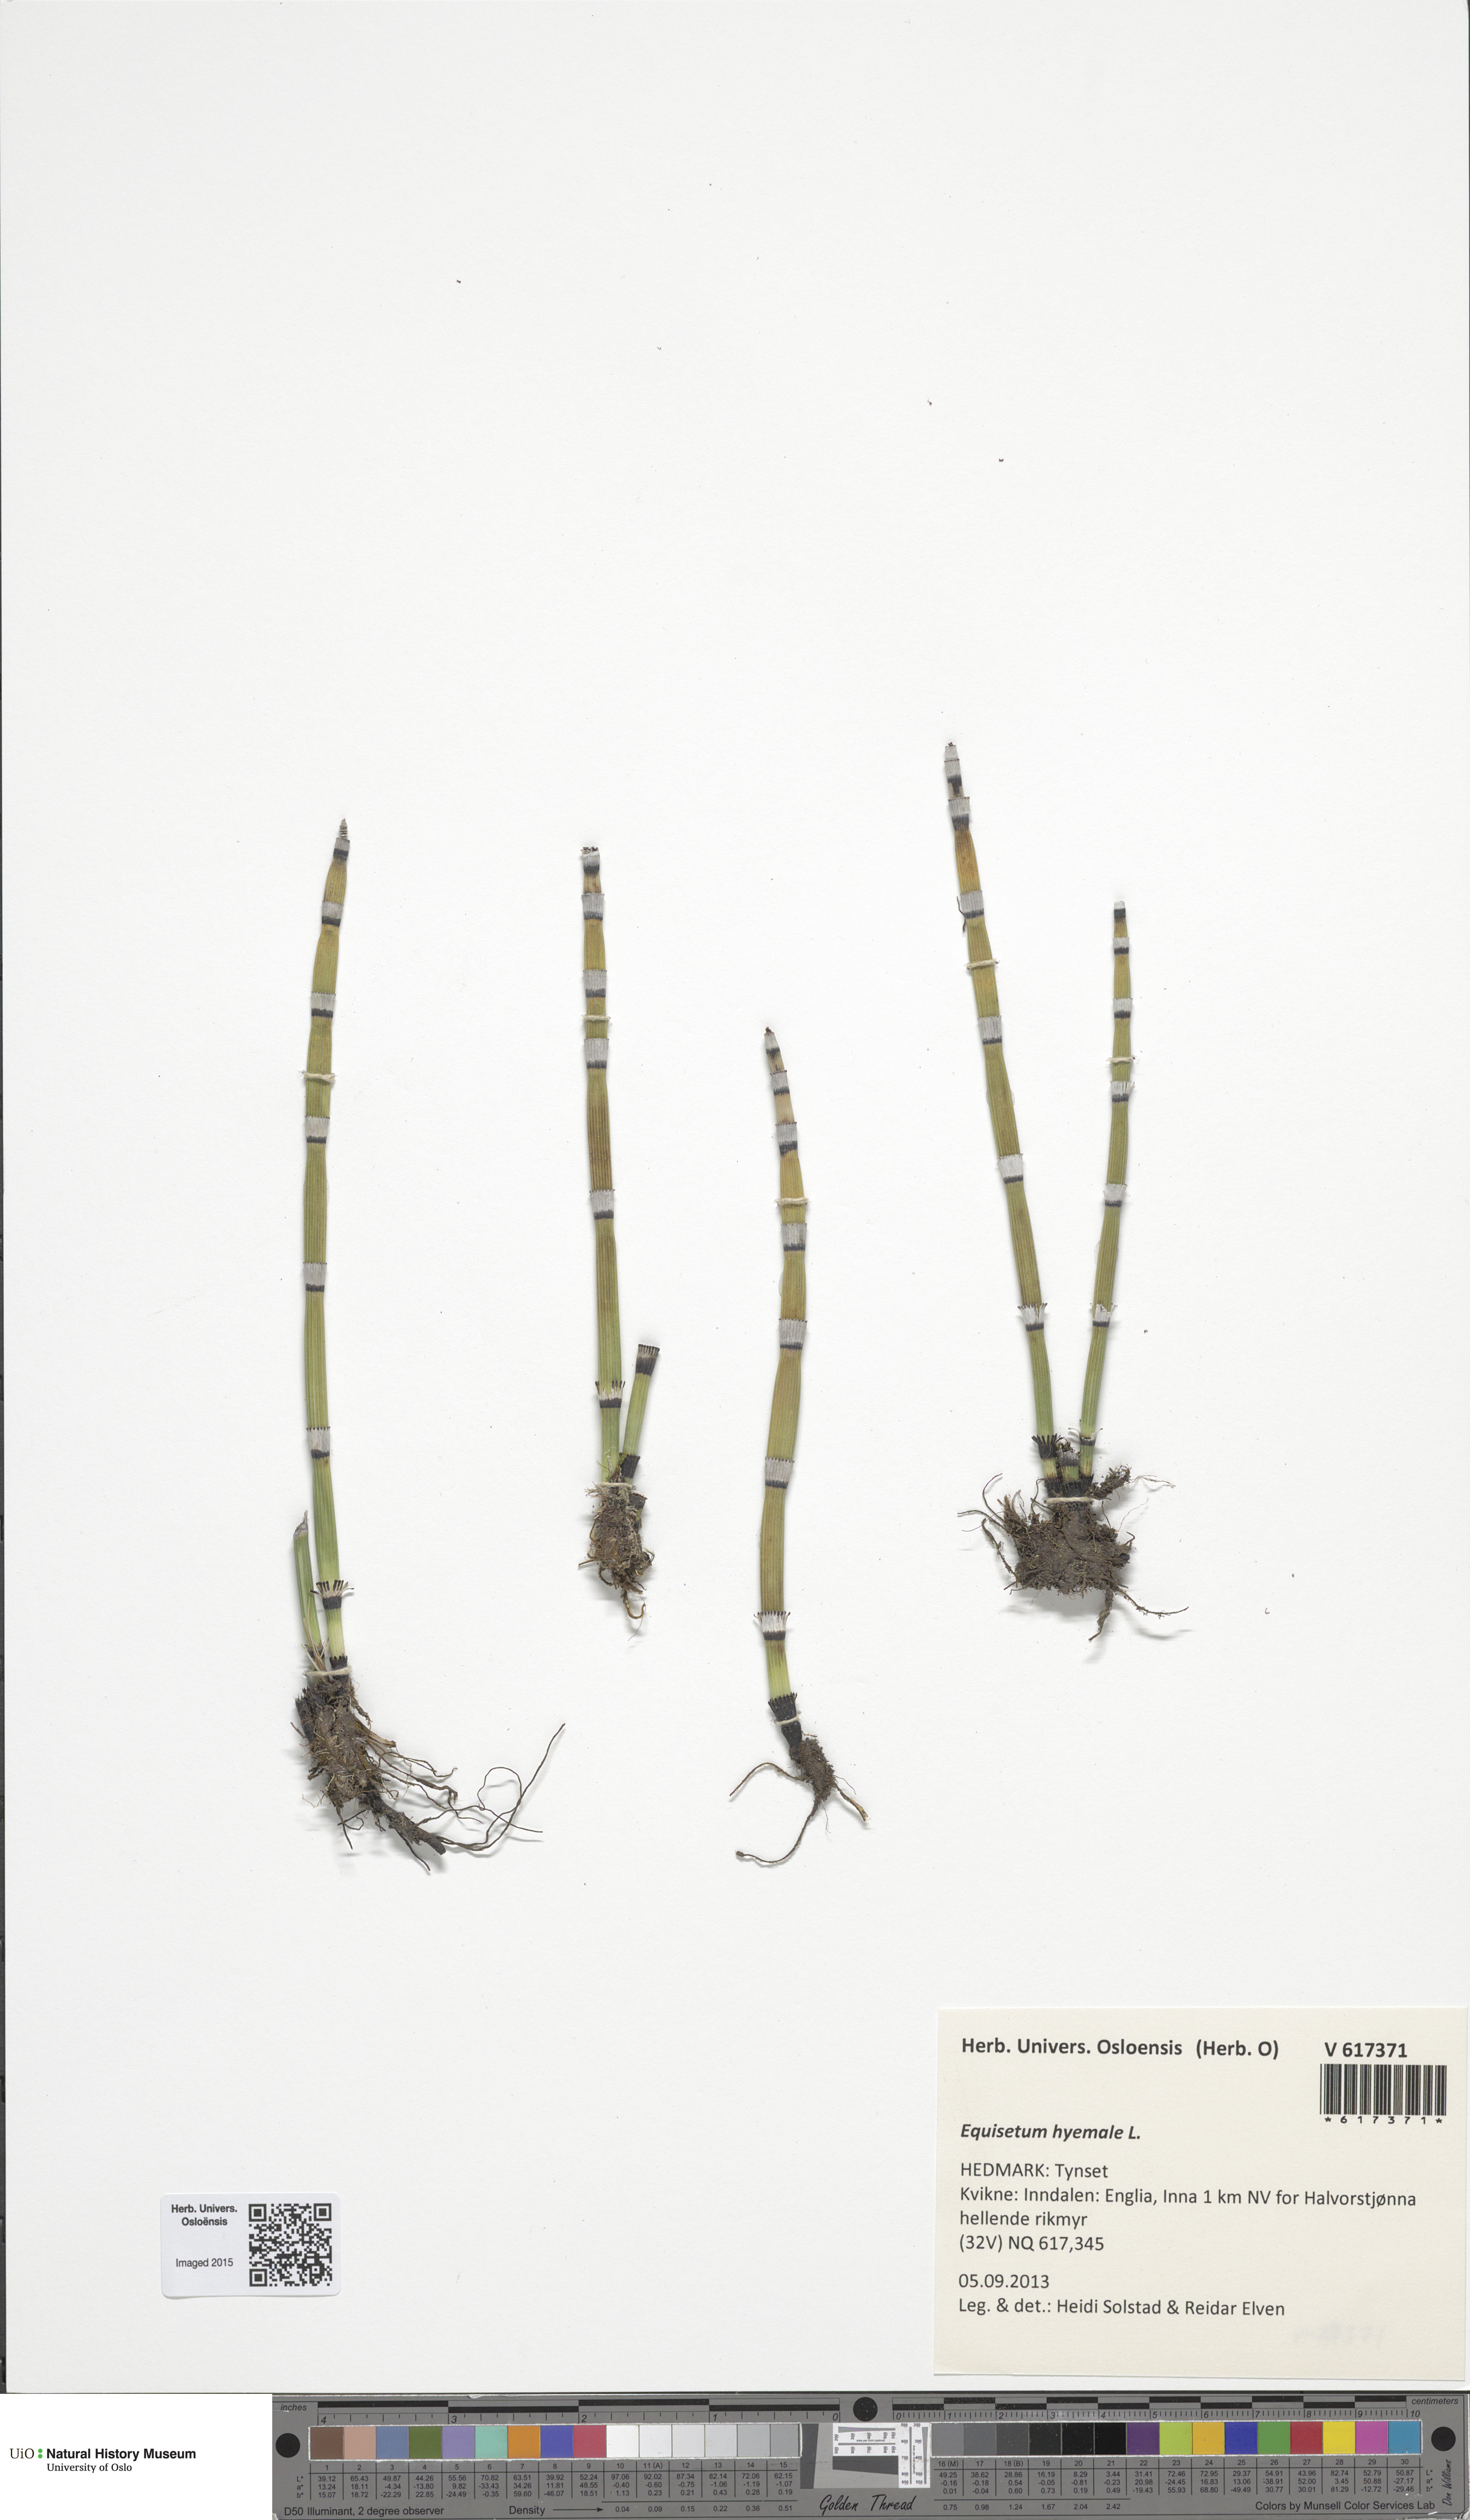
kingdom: Plantae
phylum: Tracheophyta
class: Polypodiopsida
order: Equisetales
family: Equisetaceae
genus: Equisetum
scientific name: Equisetum hyemale
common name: Rough horsetail
